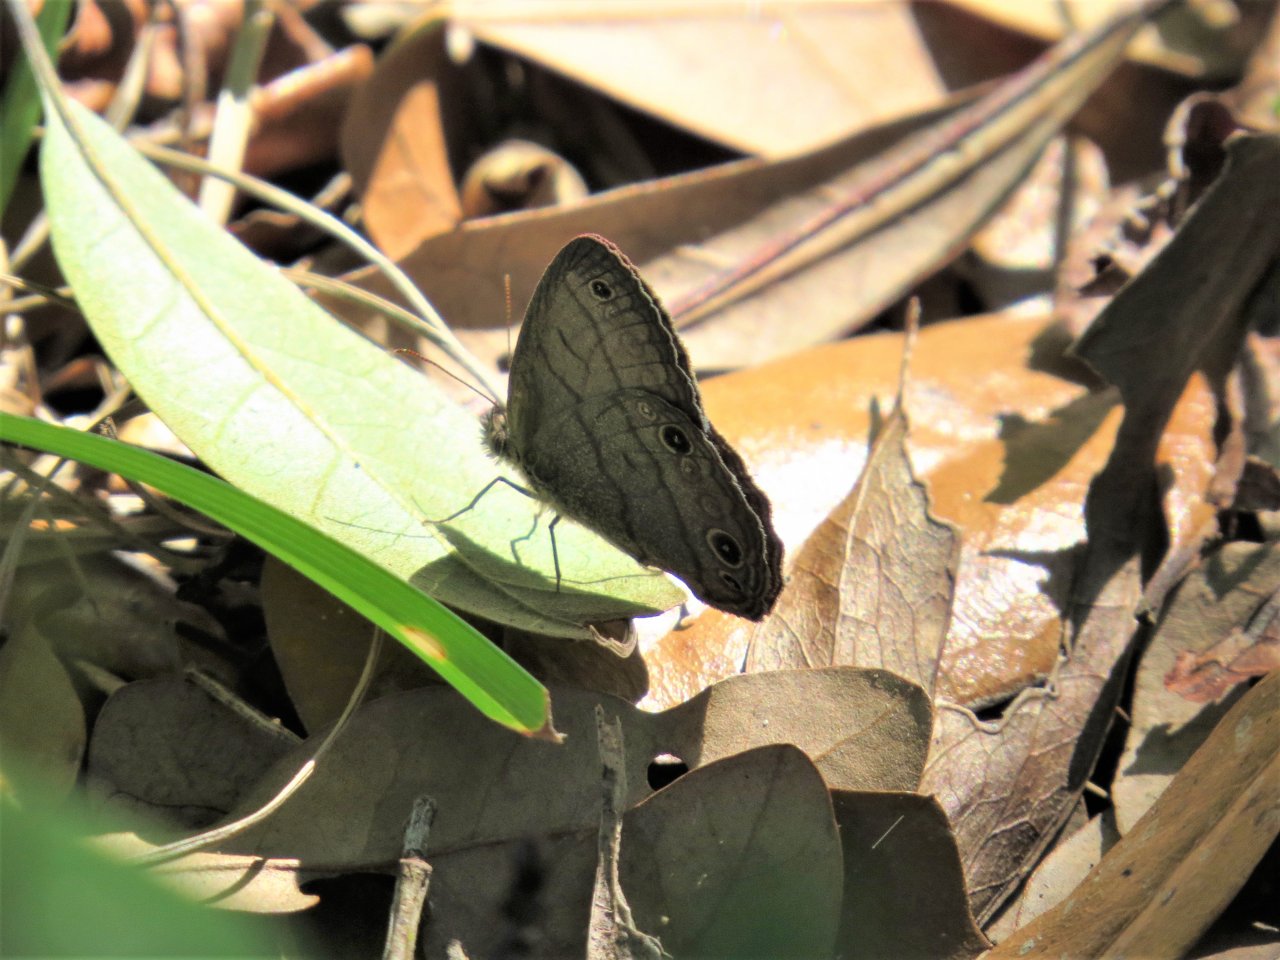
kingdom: Animalia
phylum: Arthropoda
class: Insecta
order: Lepidoptera
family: Nymphalidae
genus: Hermeuptychia
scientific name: Hermeuptychia hermes
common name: Carolina Satyr
